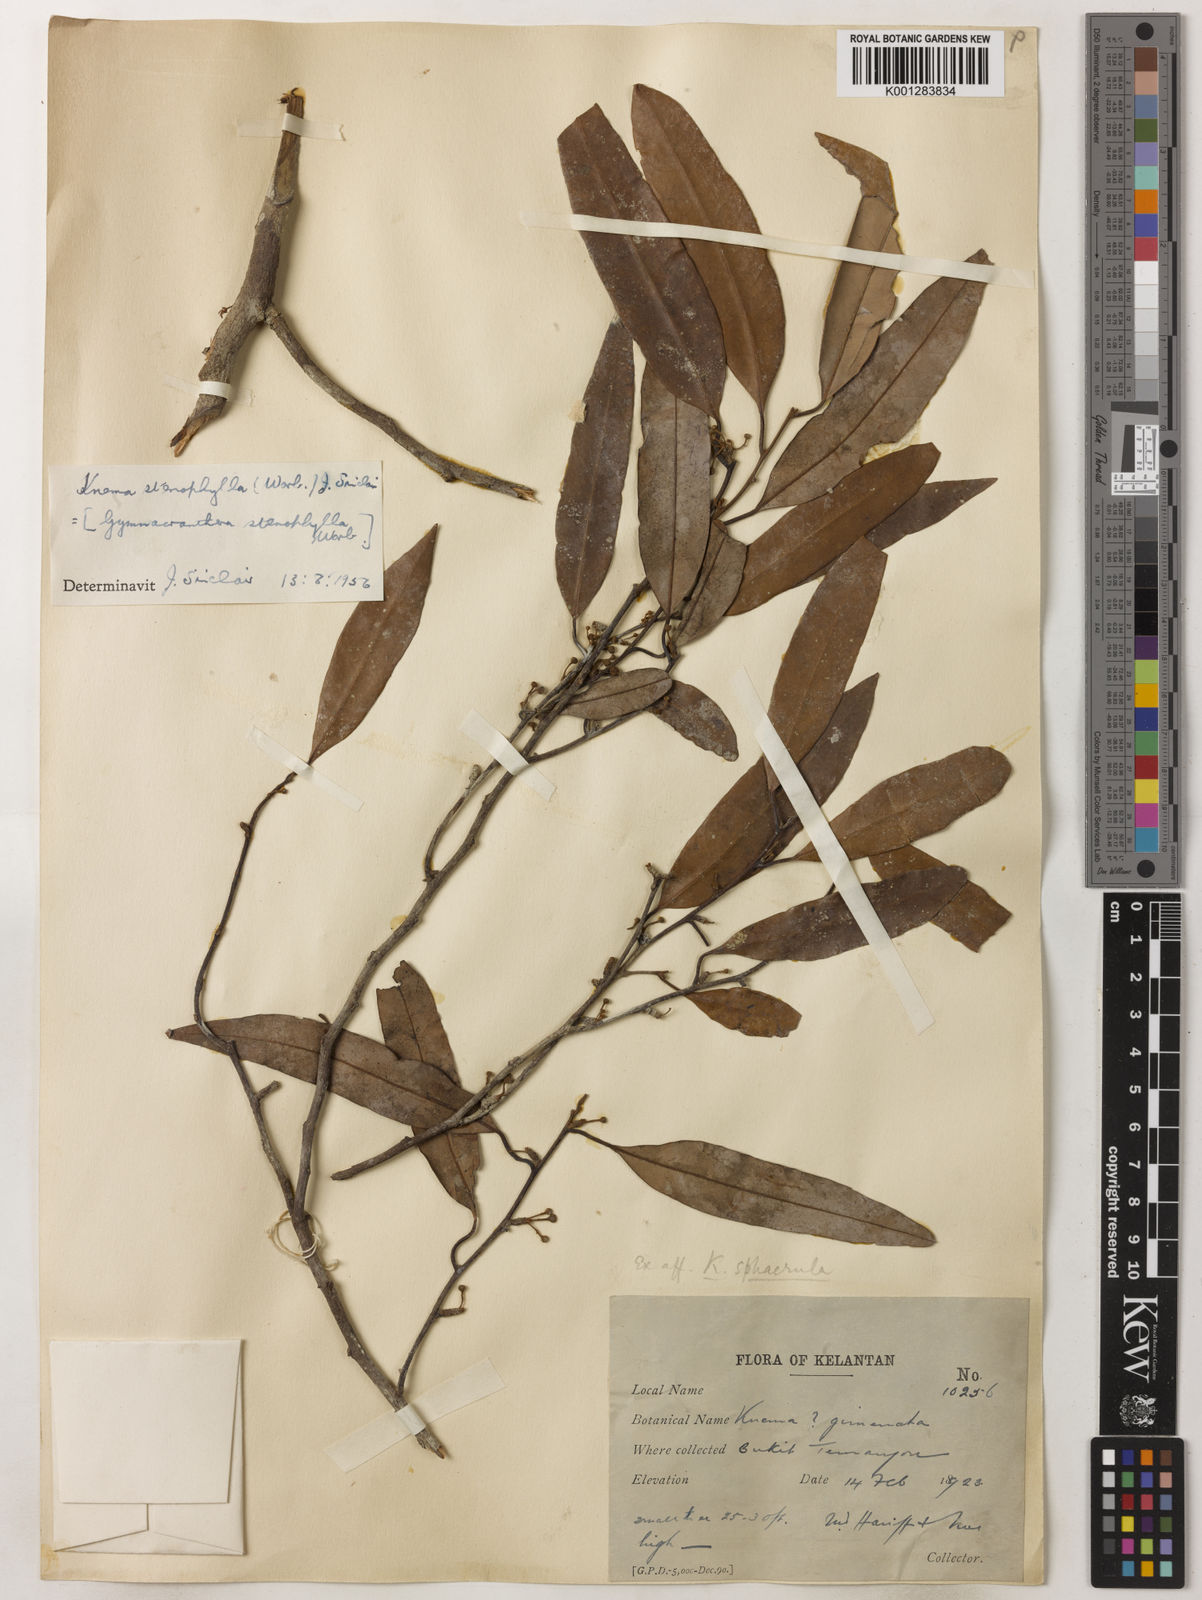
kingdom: Plantae
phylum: Tracheophyta
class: Magnoliopsida
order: Magnoliales
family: Myristicaceae
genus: Knema
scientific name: Knema stenophylla
